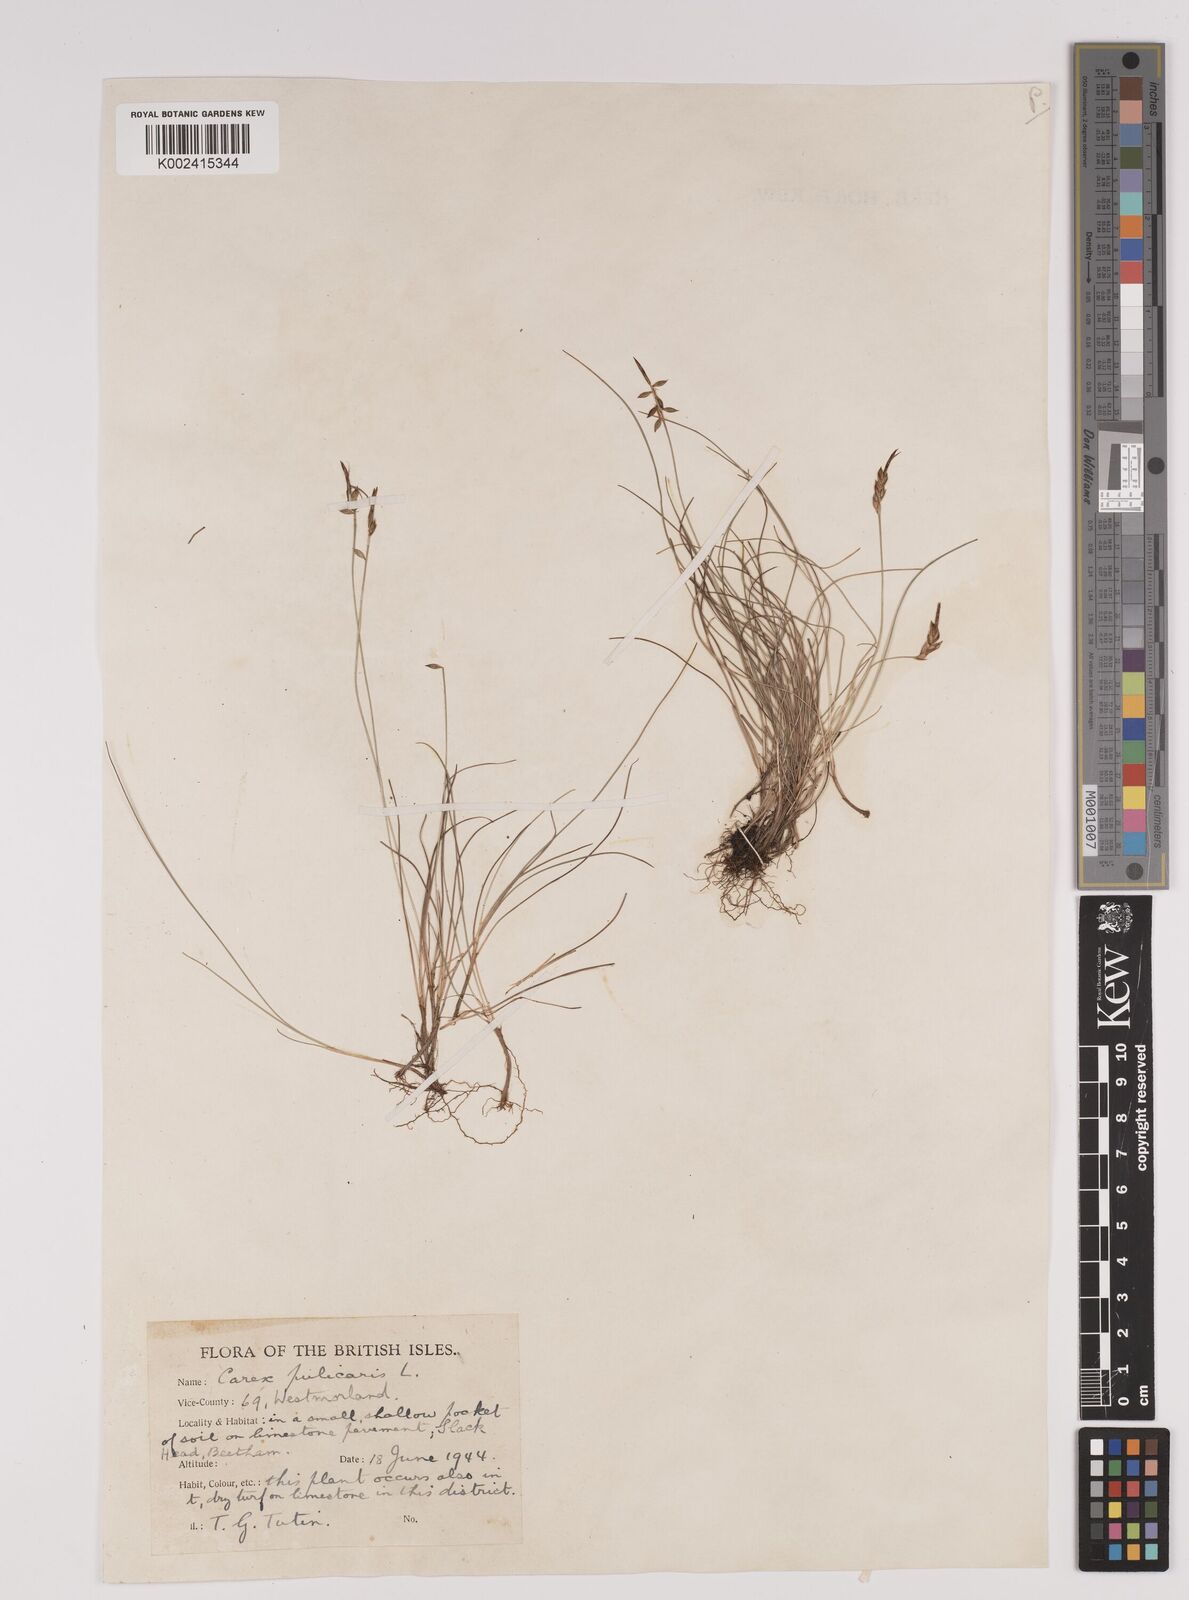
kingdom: Plantae
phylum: Tracheophyta
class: Liliopsida
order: Poales
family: Cyperaceae
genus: Carex
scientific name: Carex pulicaris
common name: Flea sedge
